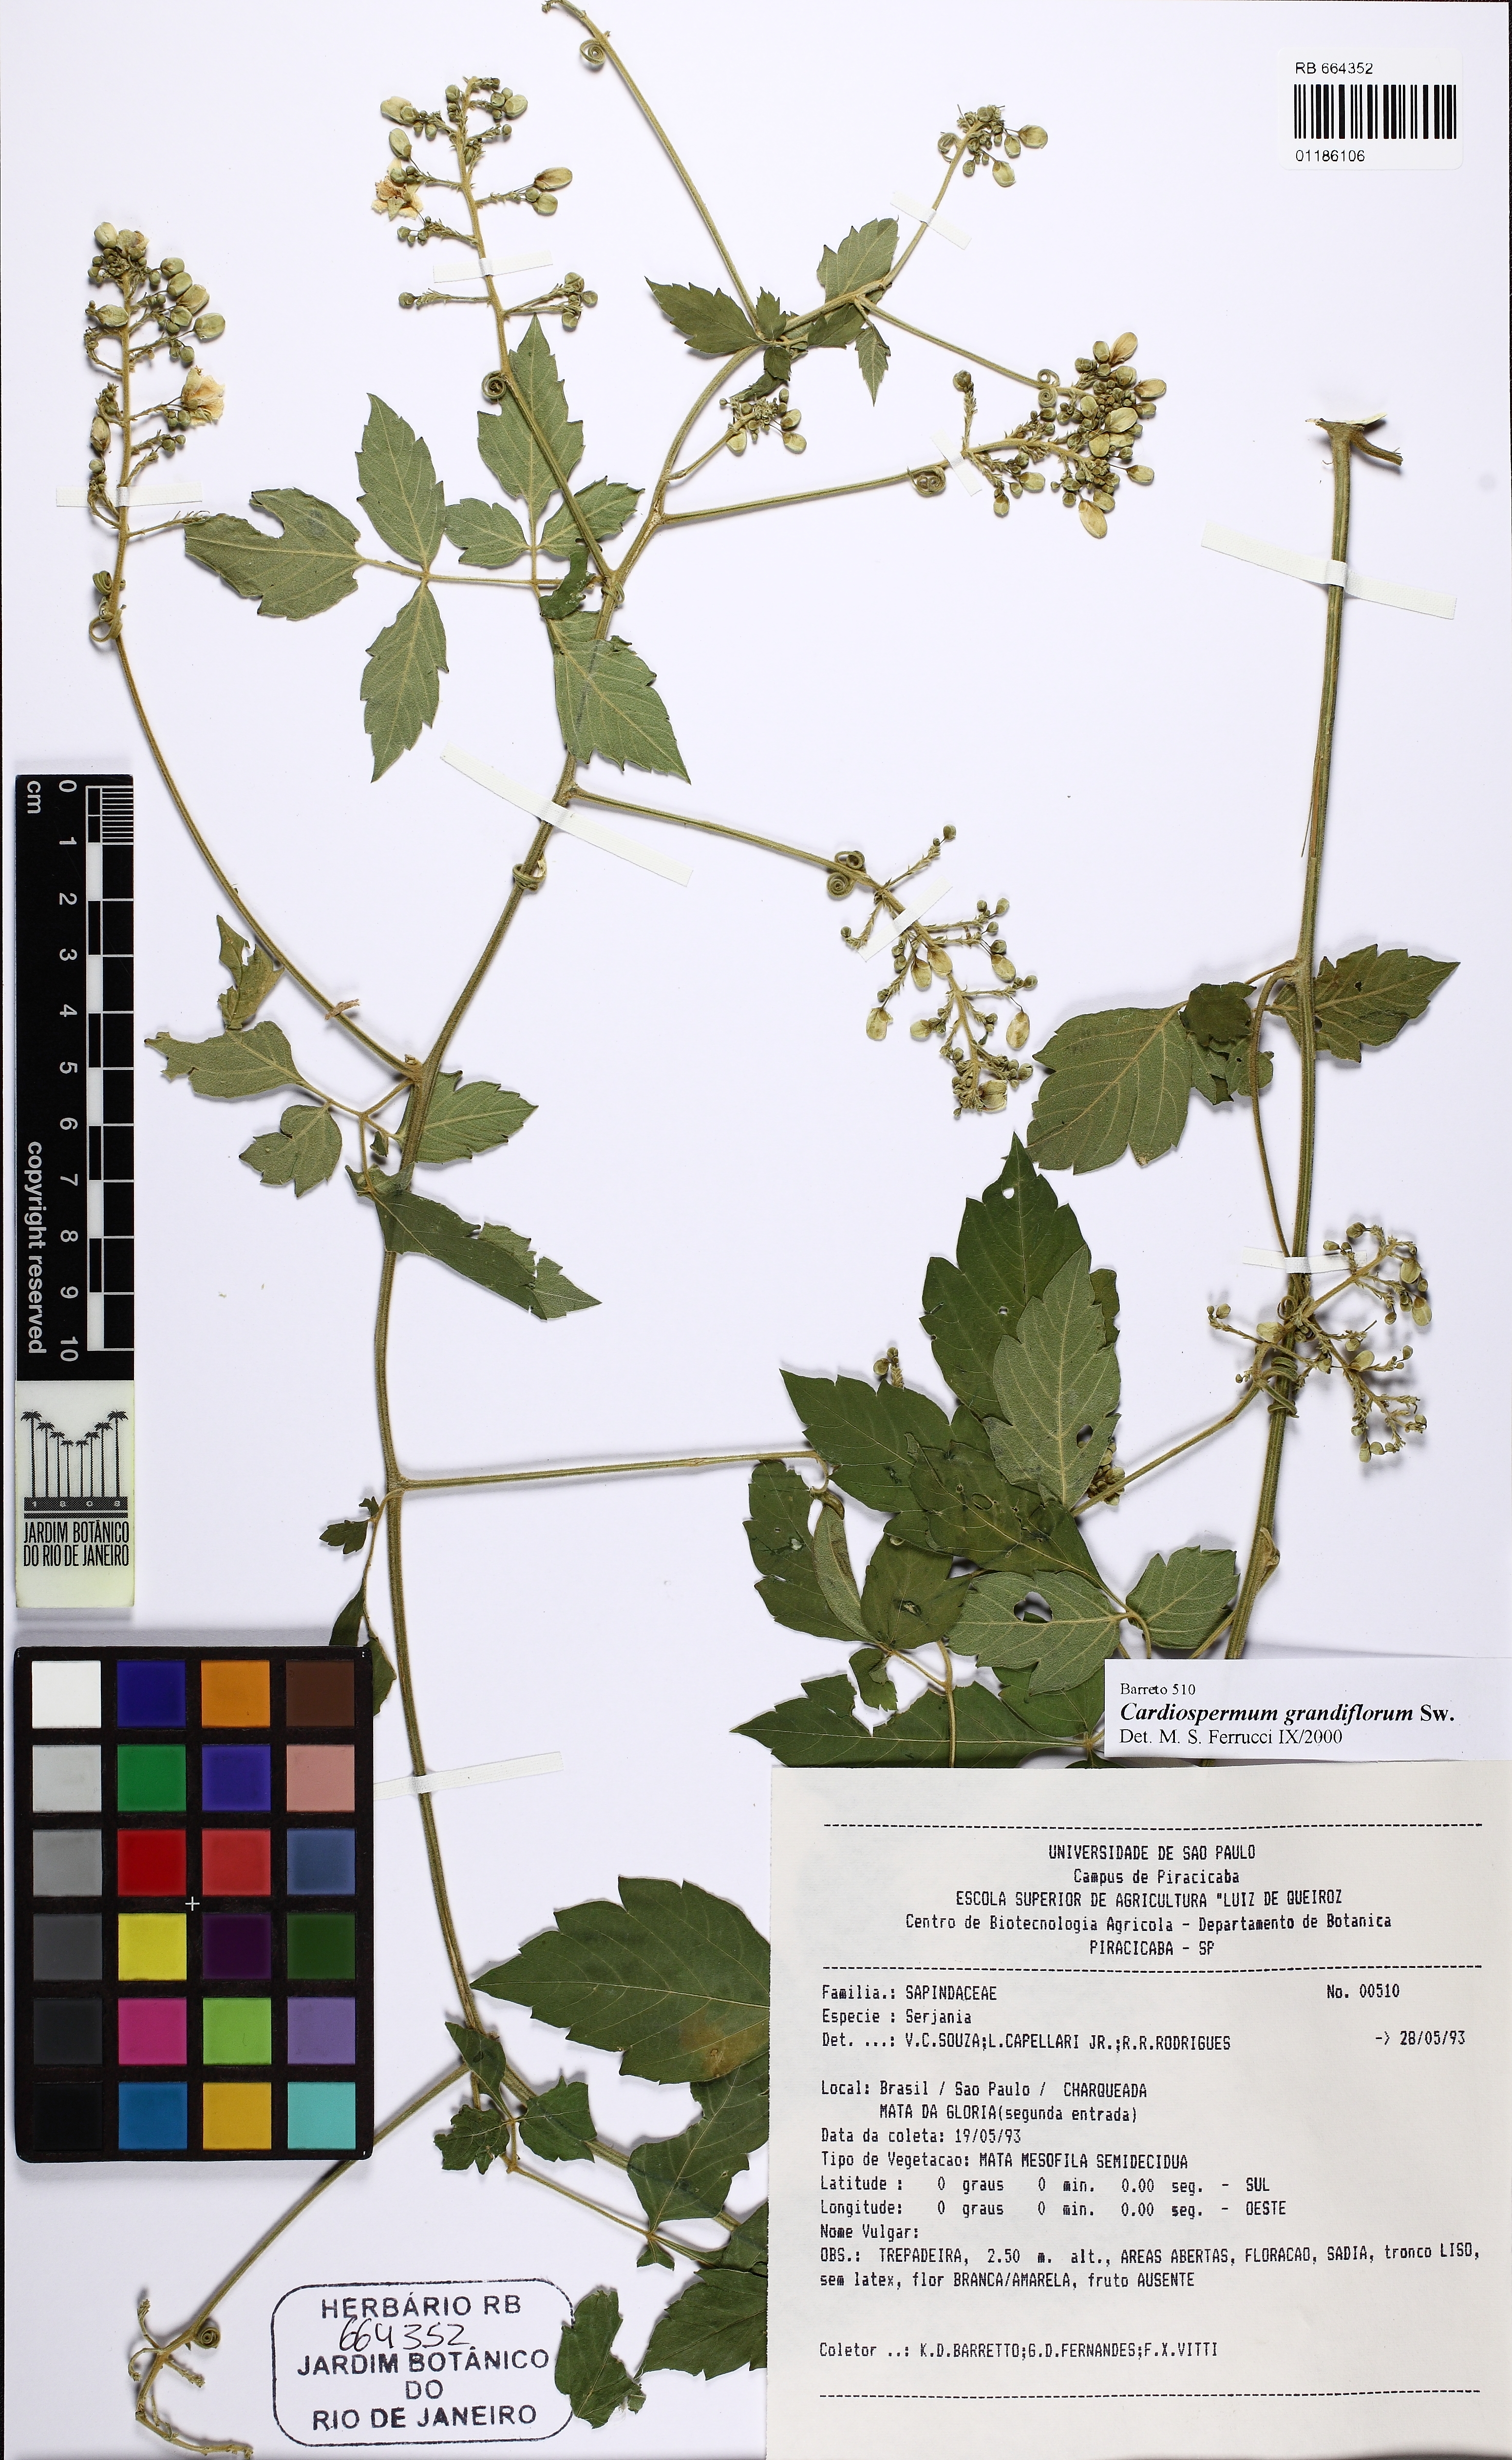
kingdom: Plantae
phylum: Tracheophyta
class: Magnoliopsida
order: Sapindales
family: Sapindaceae
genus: Cardiospermum
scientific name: Cardiospermum grandiflorum
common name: Balloon vine
